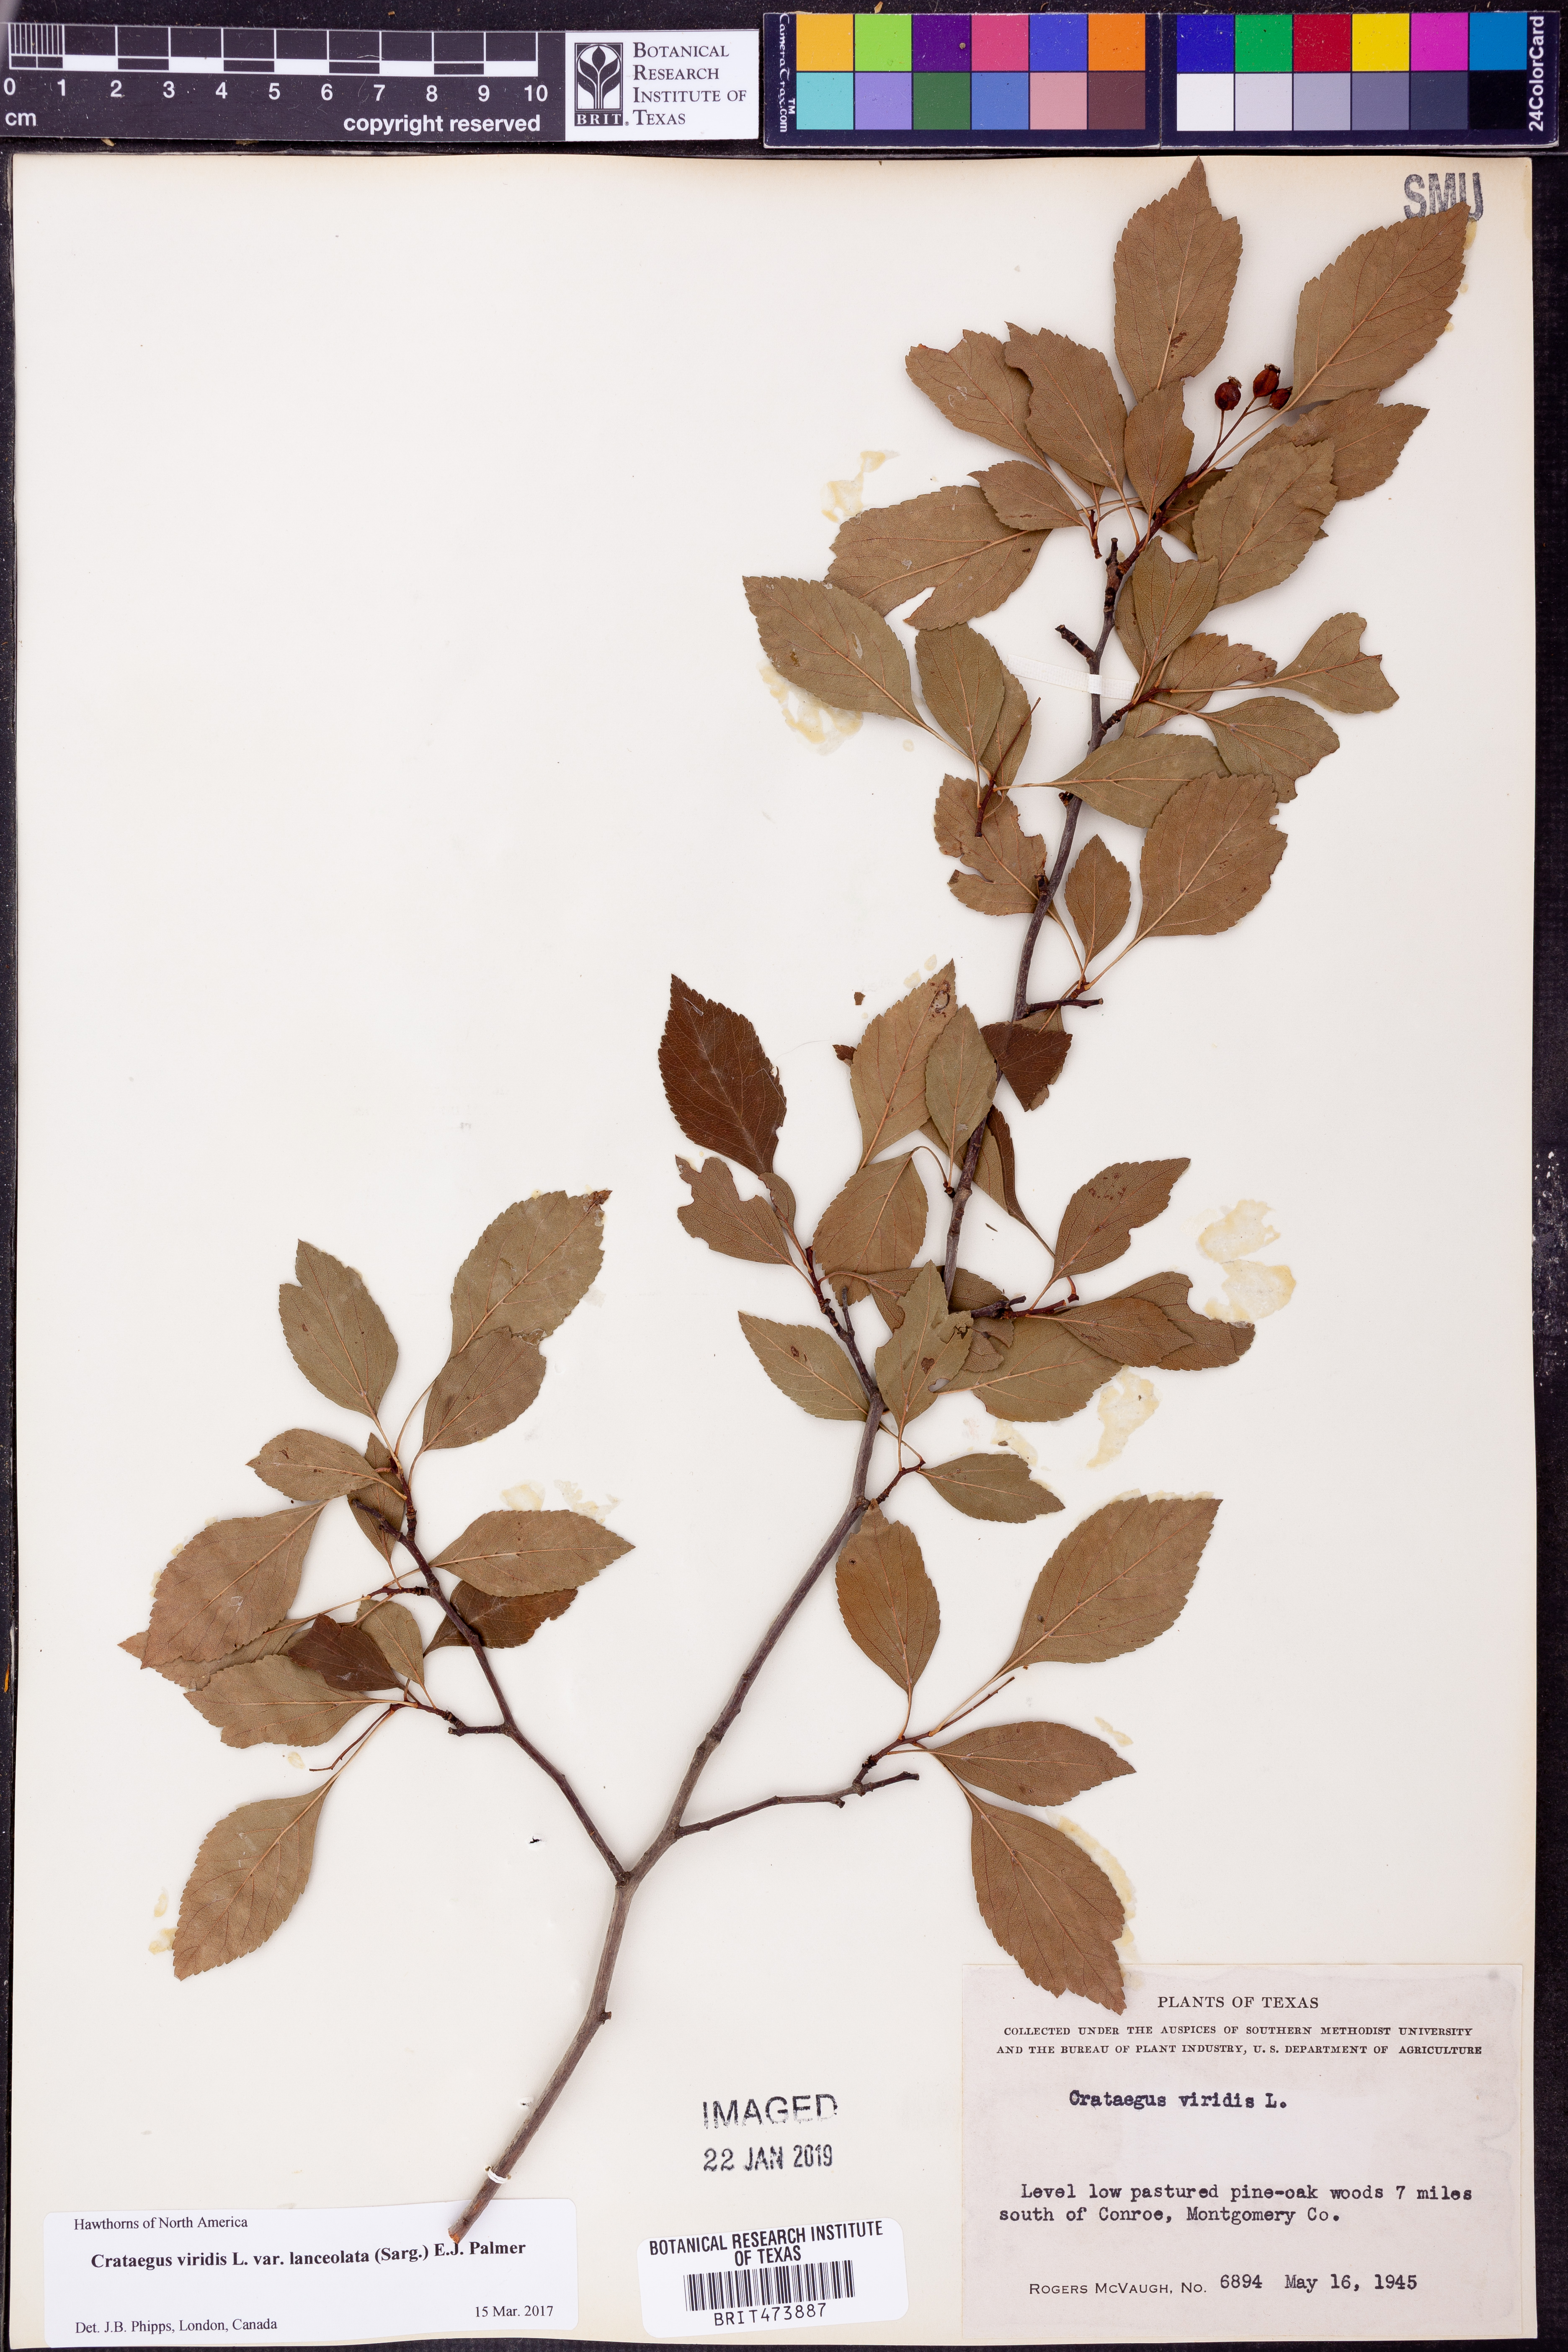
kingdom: Plantae
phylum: Tracheophyta
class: Magnoliopsida
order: Rosales
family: Rosaceae
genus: Crataegus
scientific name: Crataegus viridis
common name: Southernthorn
